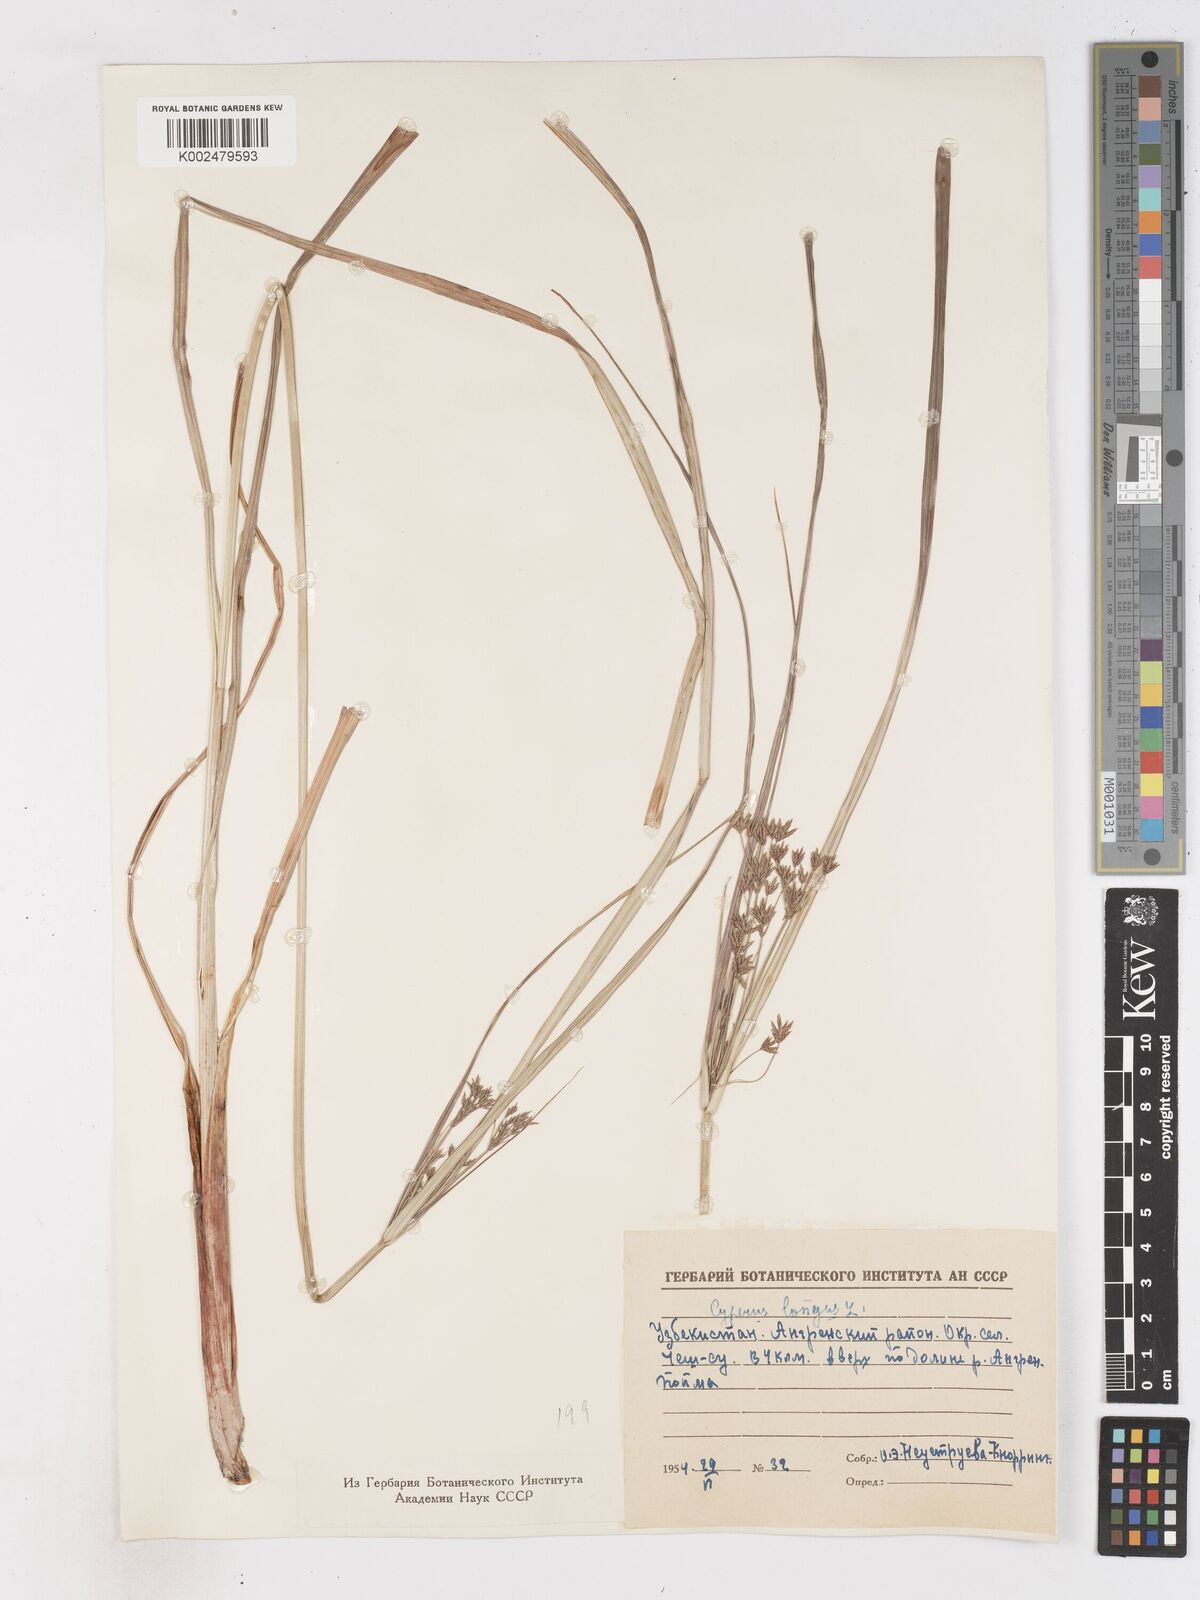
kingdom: Plantae
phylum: Tracheophyta
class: Liliopsida
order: Poales
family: Cyperaceae
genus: Cyperus
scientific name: Cyperus longus
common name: Galingale
